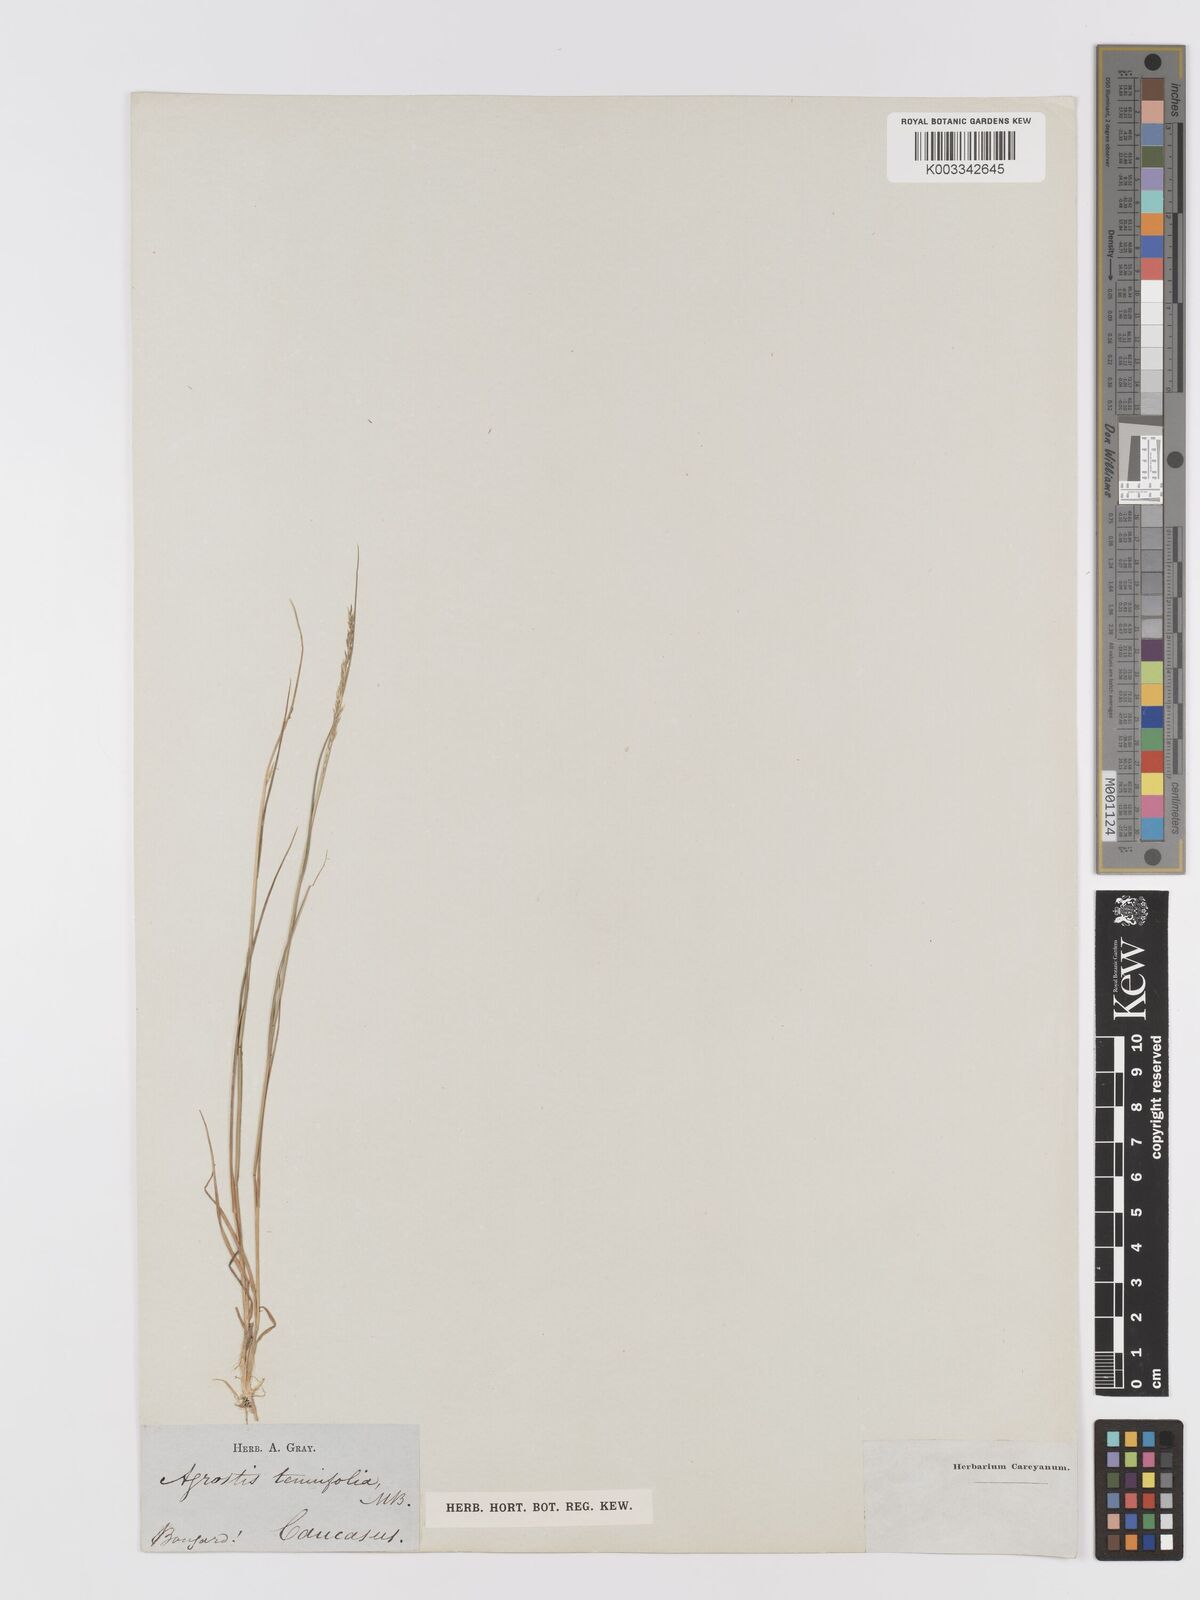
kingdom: Plantae
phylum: Tracheophyta
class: Liliopsida
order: Poales
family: Poaceae
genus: Agrostis
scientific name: Agrostis canina
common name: Velvet bent
